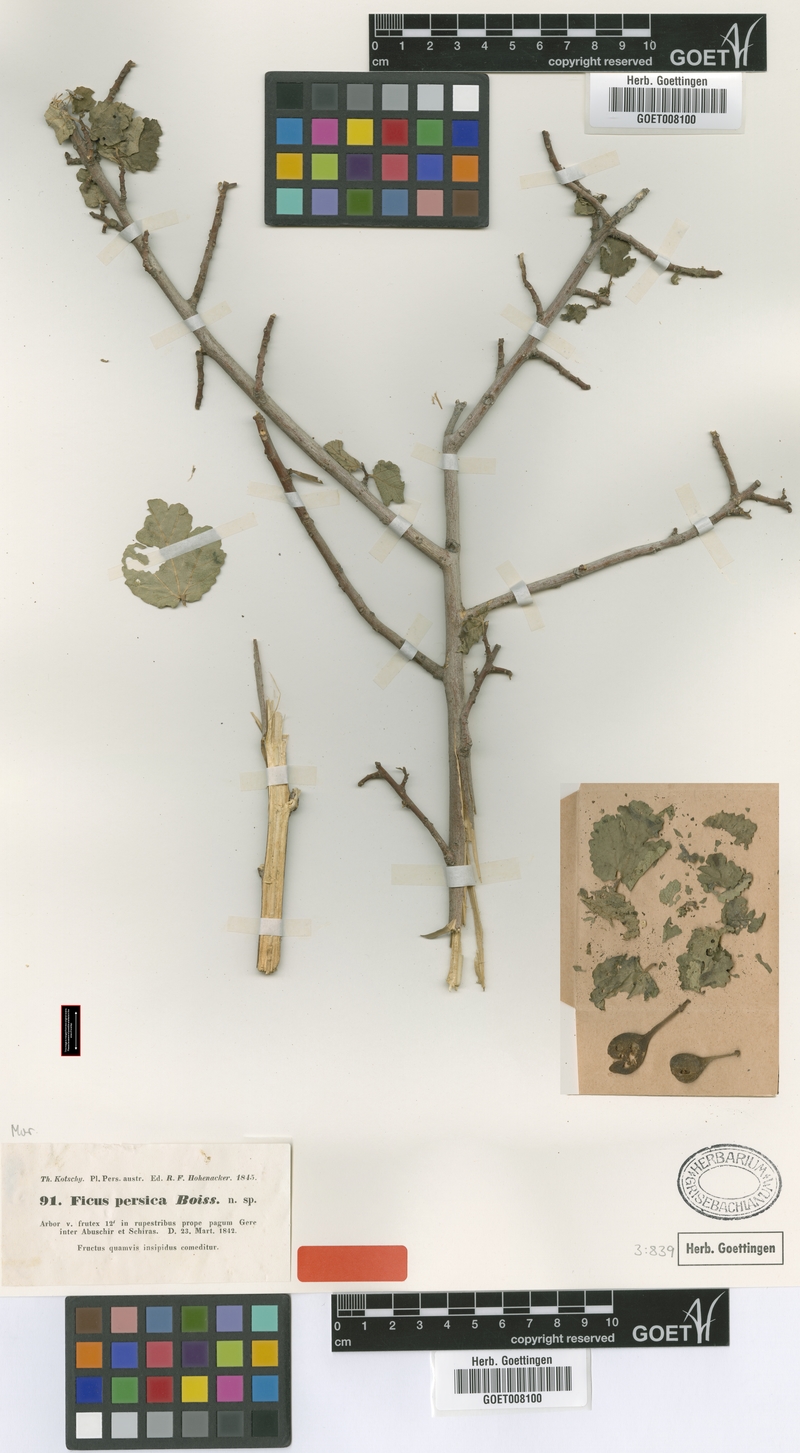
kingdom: Plantae
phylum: Tracheophyta
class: Magnoliopsida
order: Rosales
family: Moraceae
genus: Ficus
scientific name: Ficus johannis
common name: Mountain fig
